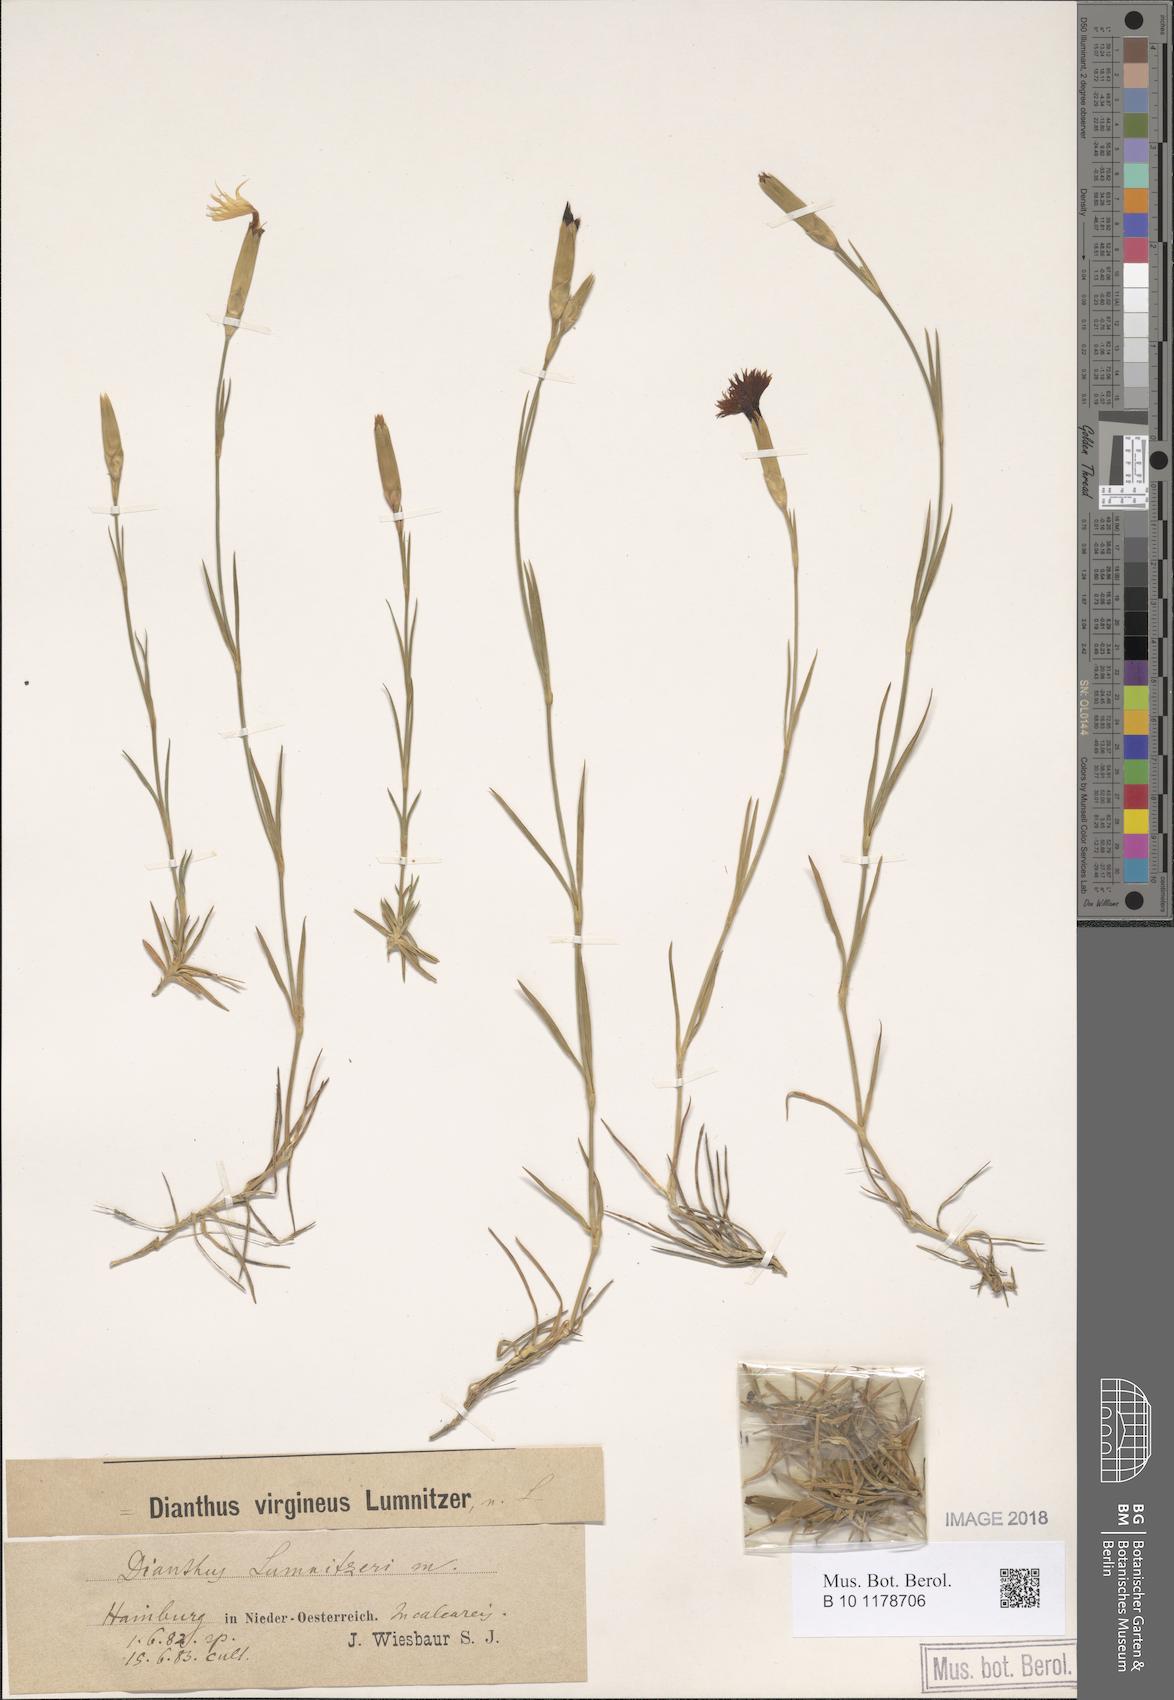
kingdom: Plantae
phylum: Tracheophyta
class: Magnoliopsida
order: Caryophyllales
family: Caryophyllaceae
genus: Dianthus
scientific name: Dianthus praecox
